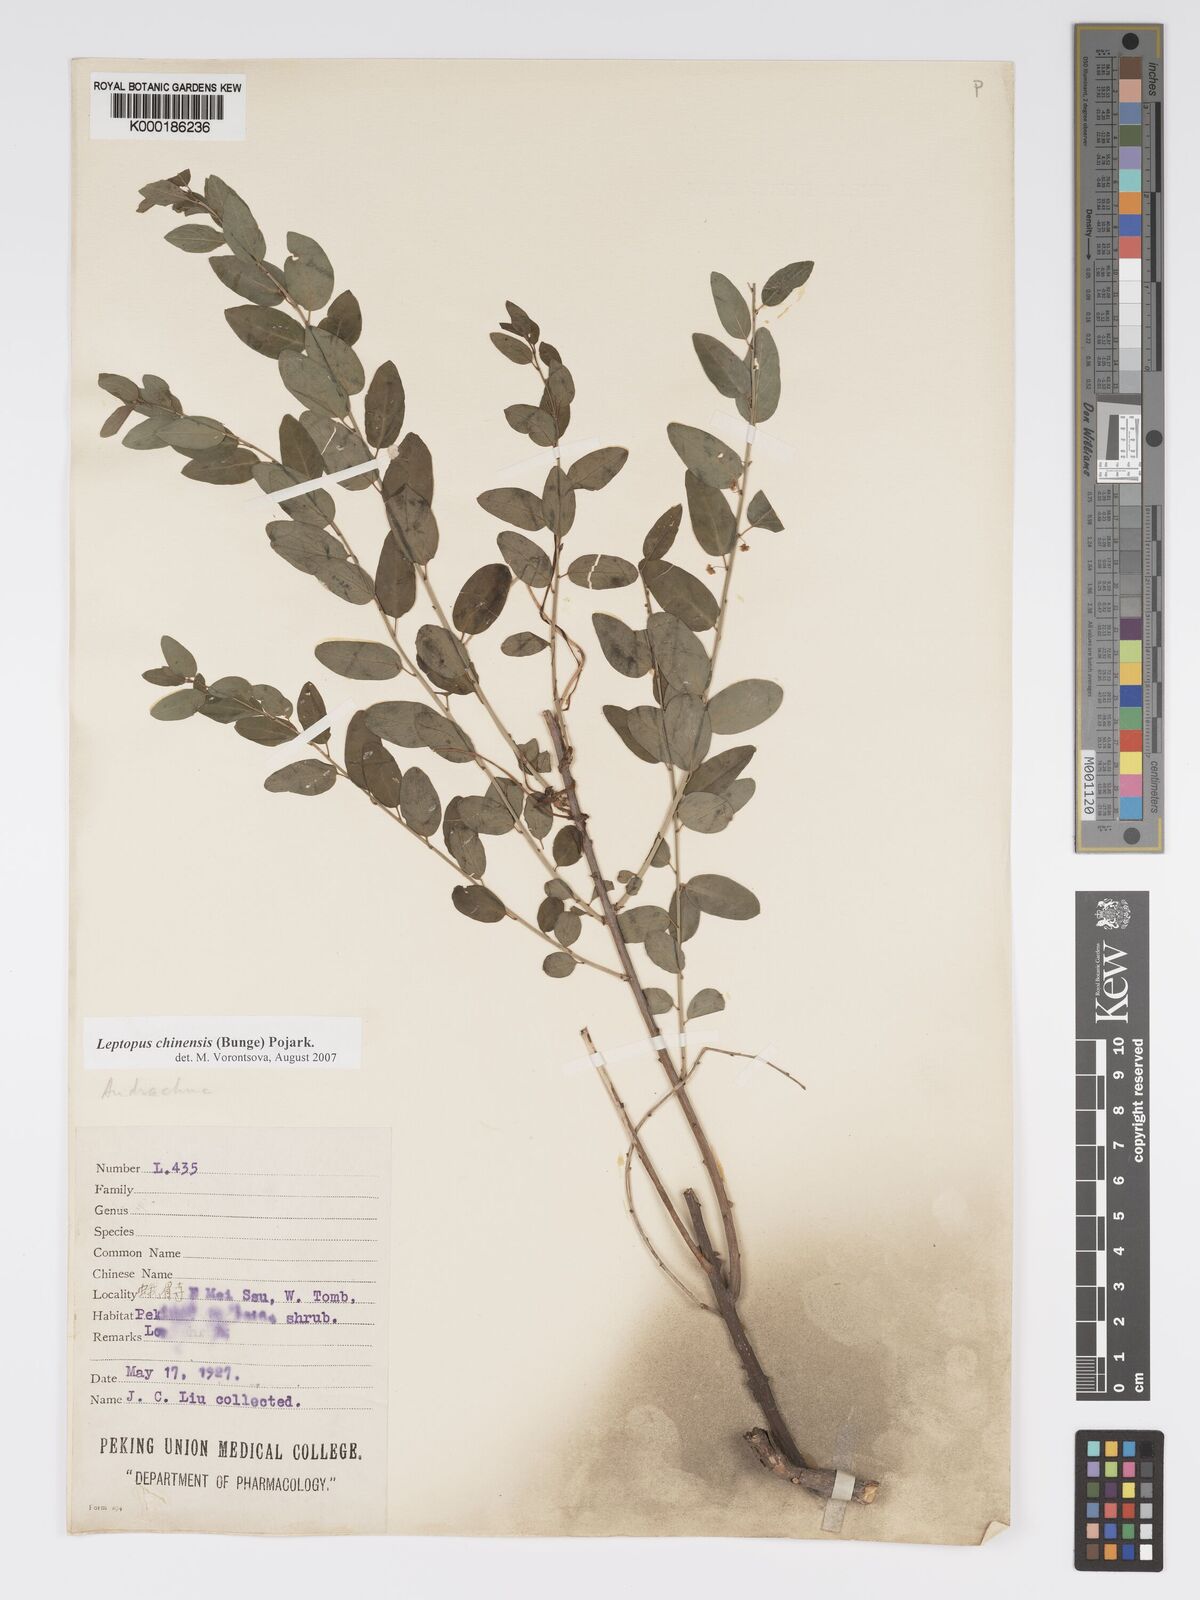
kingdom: Plantae
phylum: Tracheophyta
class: Magnoliopsida
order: Malpighiales
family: Phyllanthaceae
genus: Leptopus
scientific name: Leptopus chinensis
